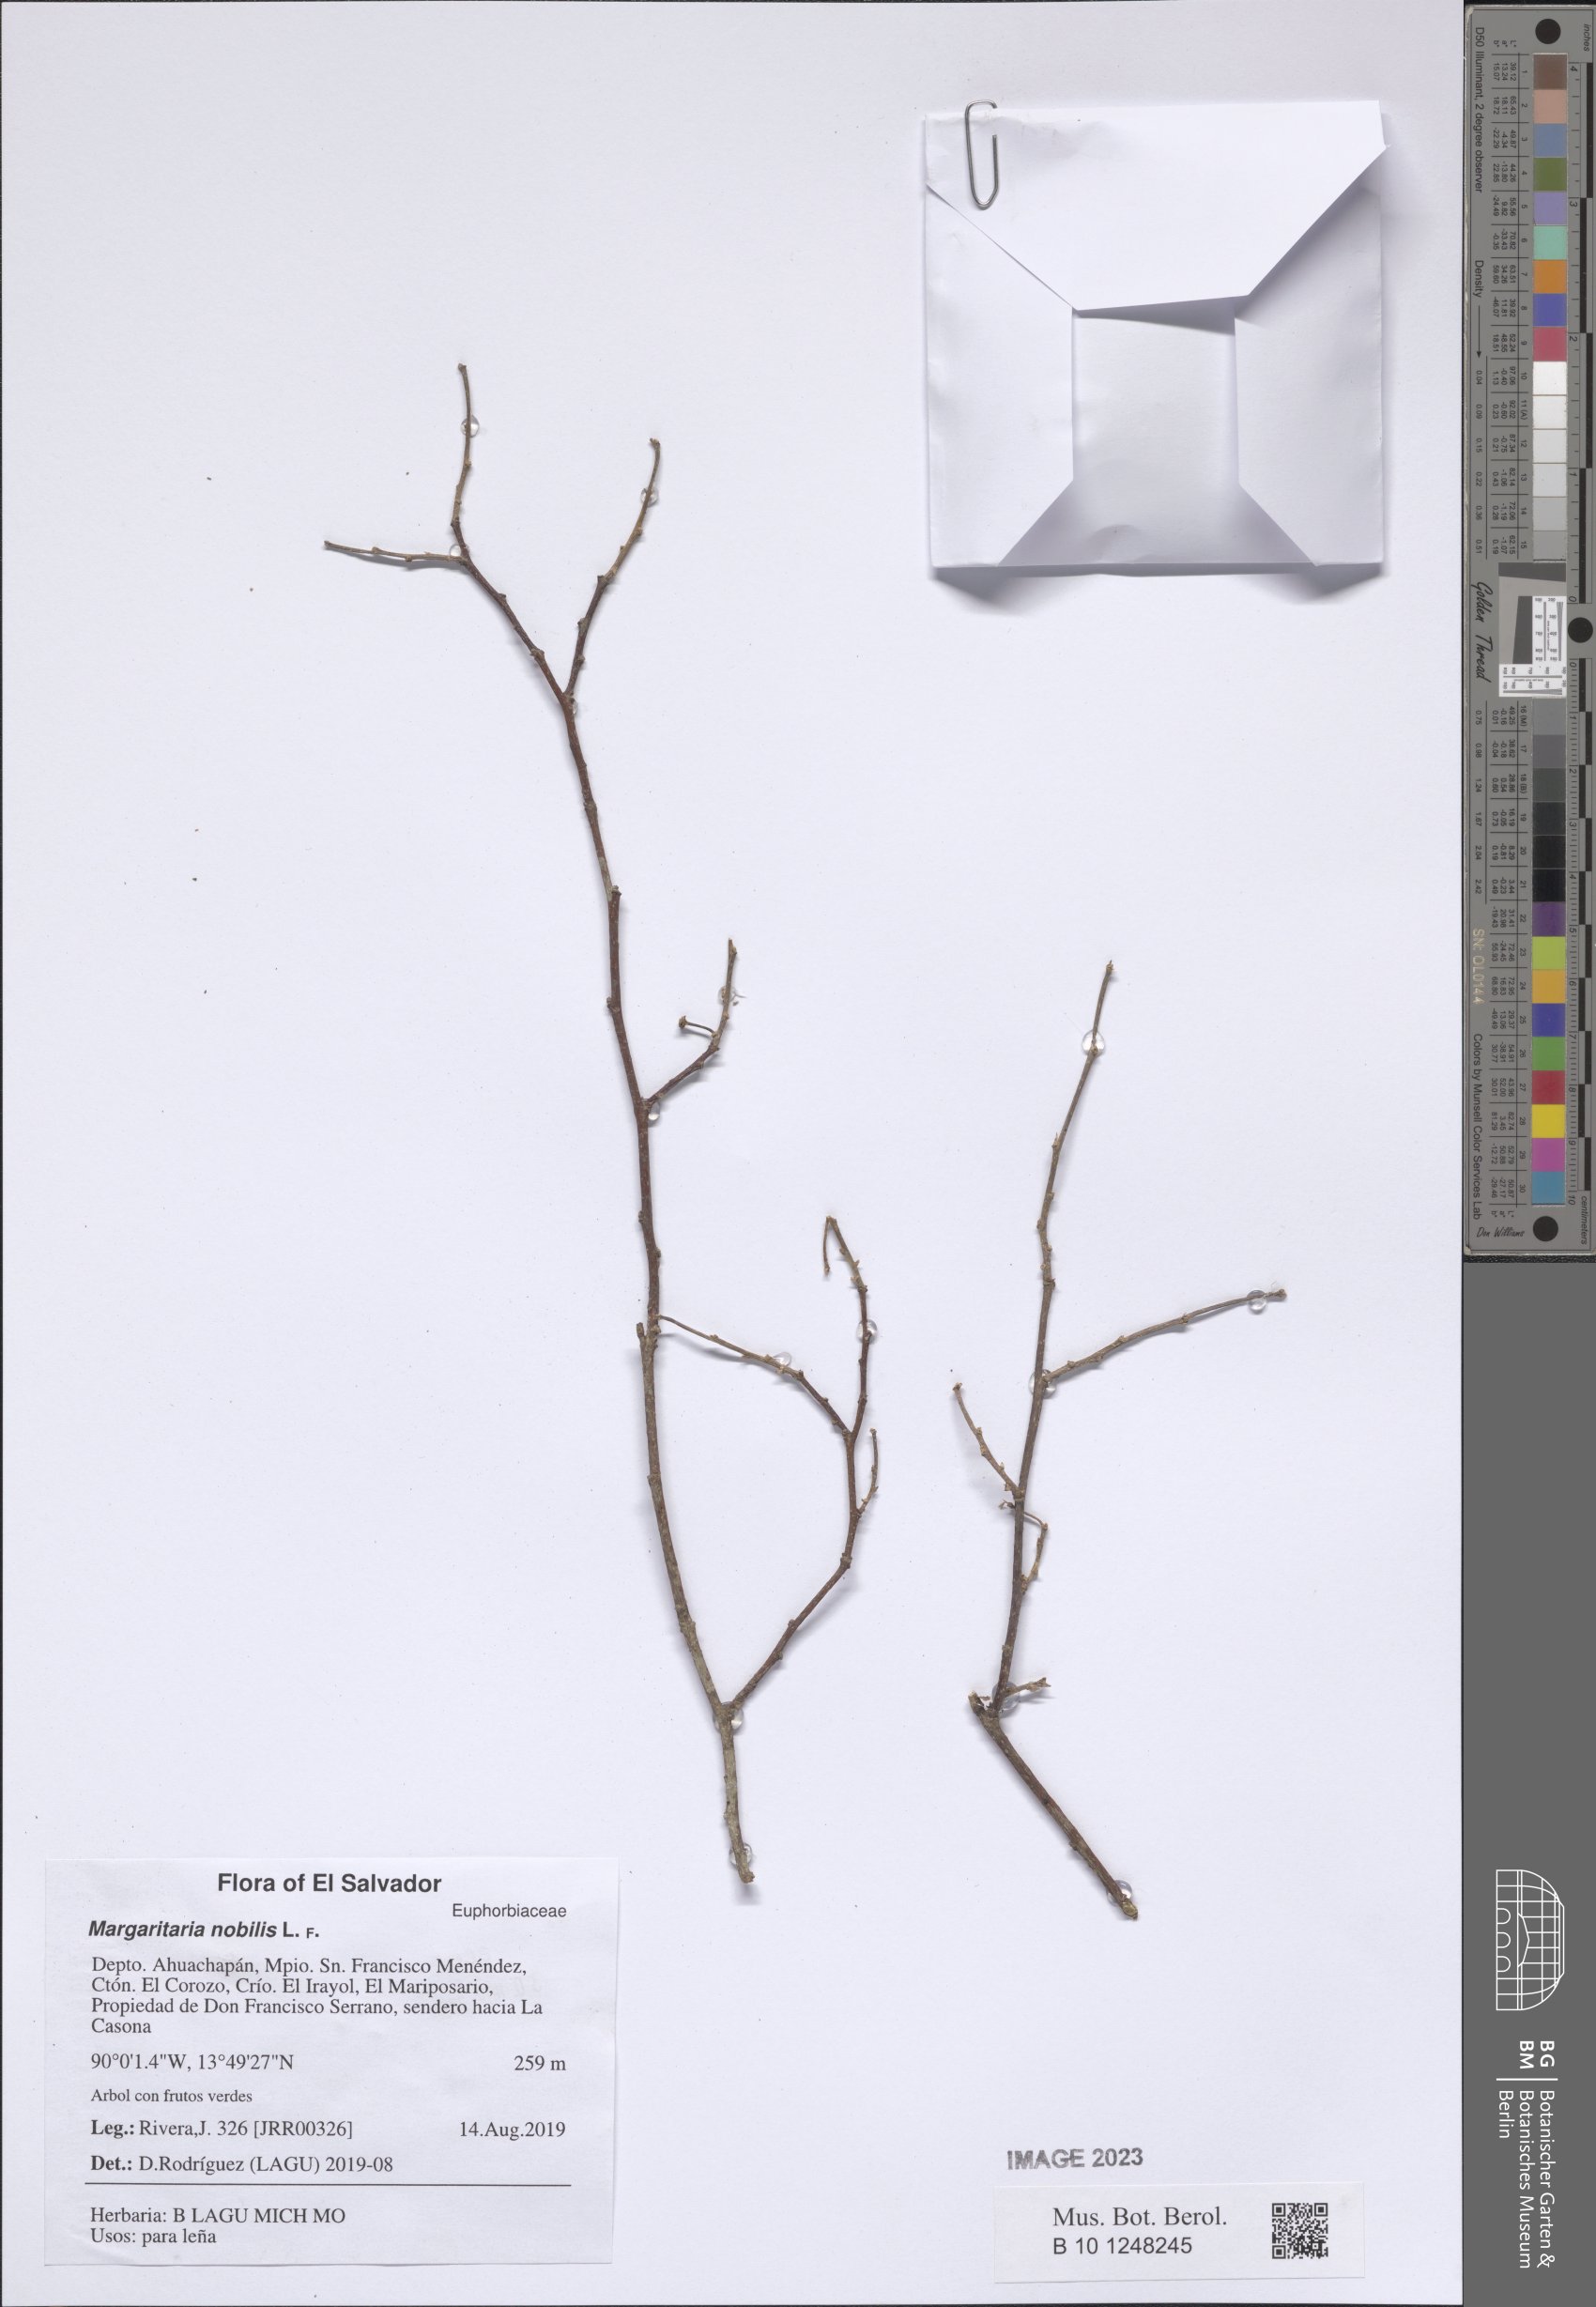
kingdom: Plantae
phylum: Tracheophyta
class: Magnoliopsida
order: Malpighiales
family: Phyllanthaceae
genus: Margaritaria
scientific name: Margaritaria nobilis
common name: Goose berry
